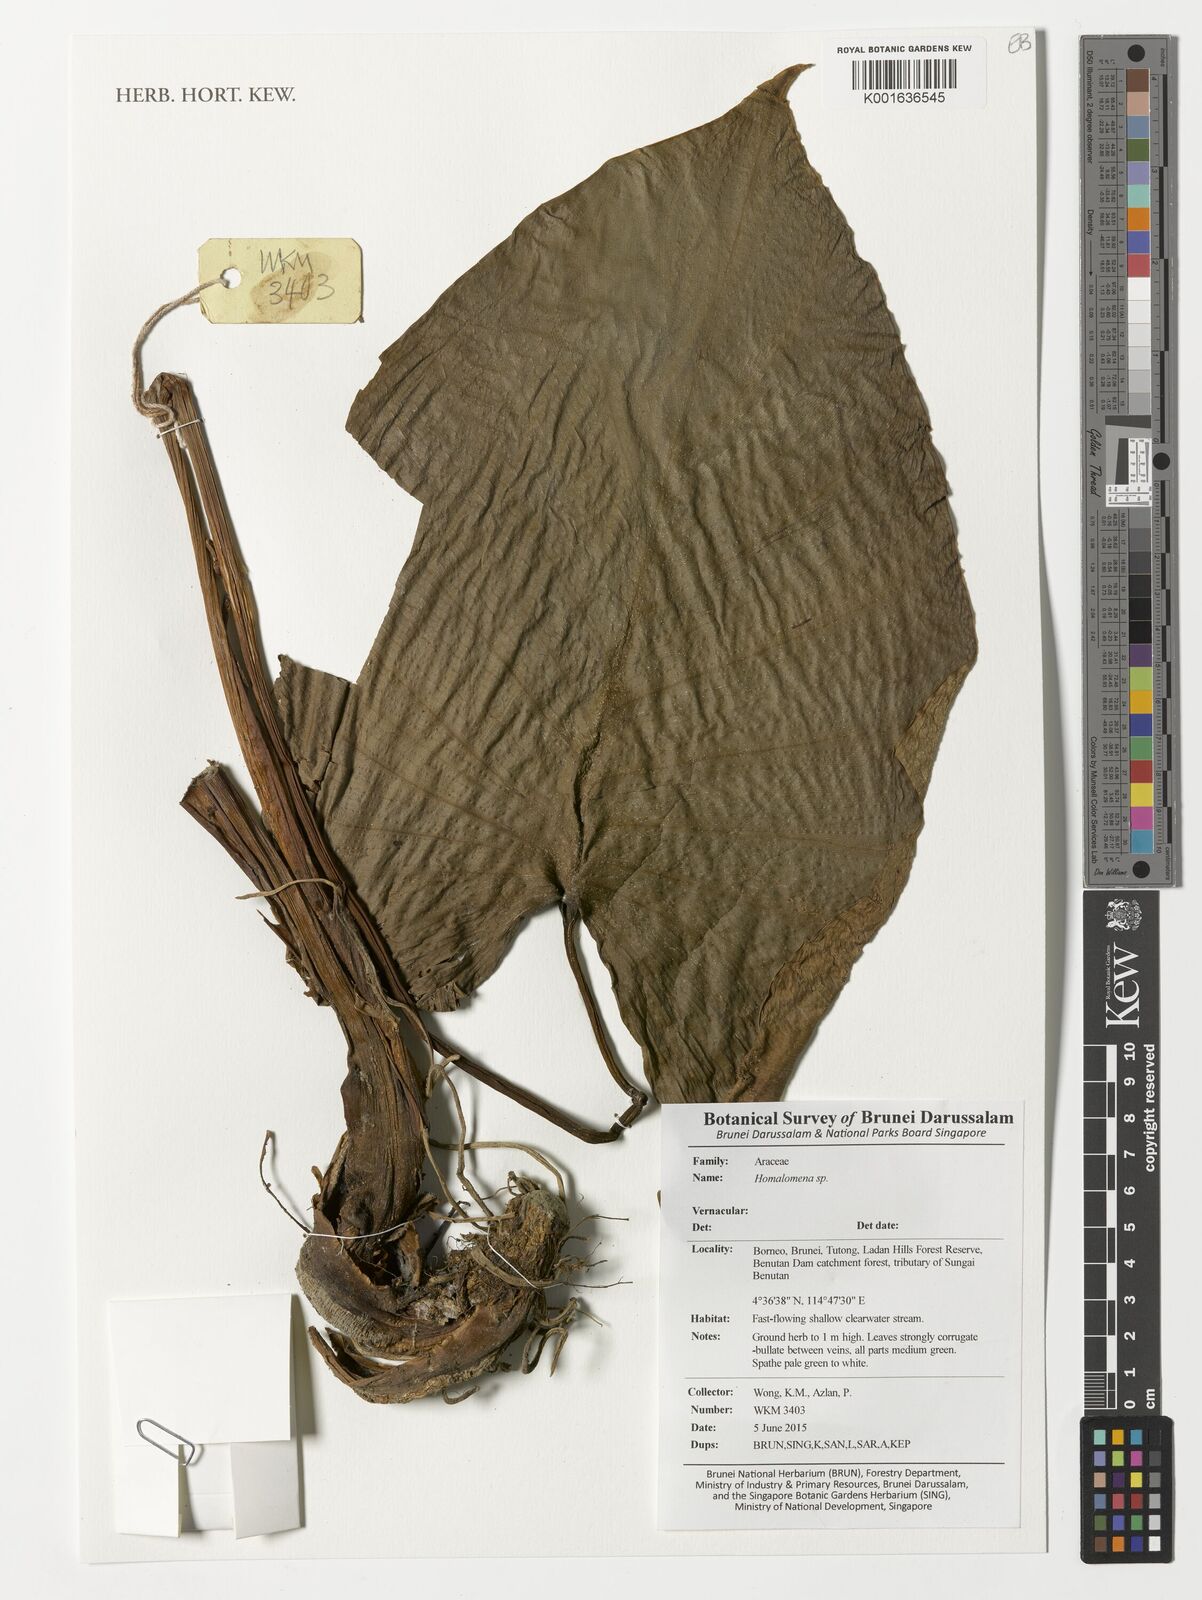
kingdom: Plantae
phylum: Tracheophyta
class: Liliopsida
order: Alismatales
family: Araceae
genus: Homalomena
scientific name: Homalomena
